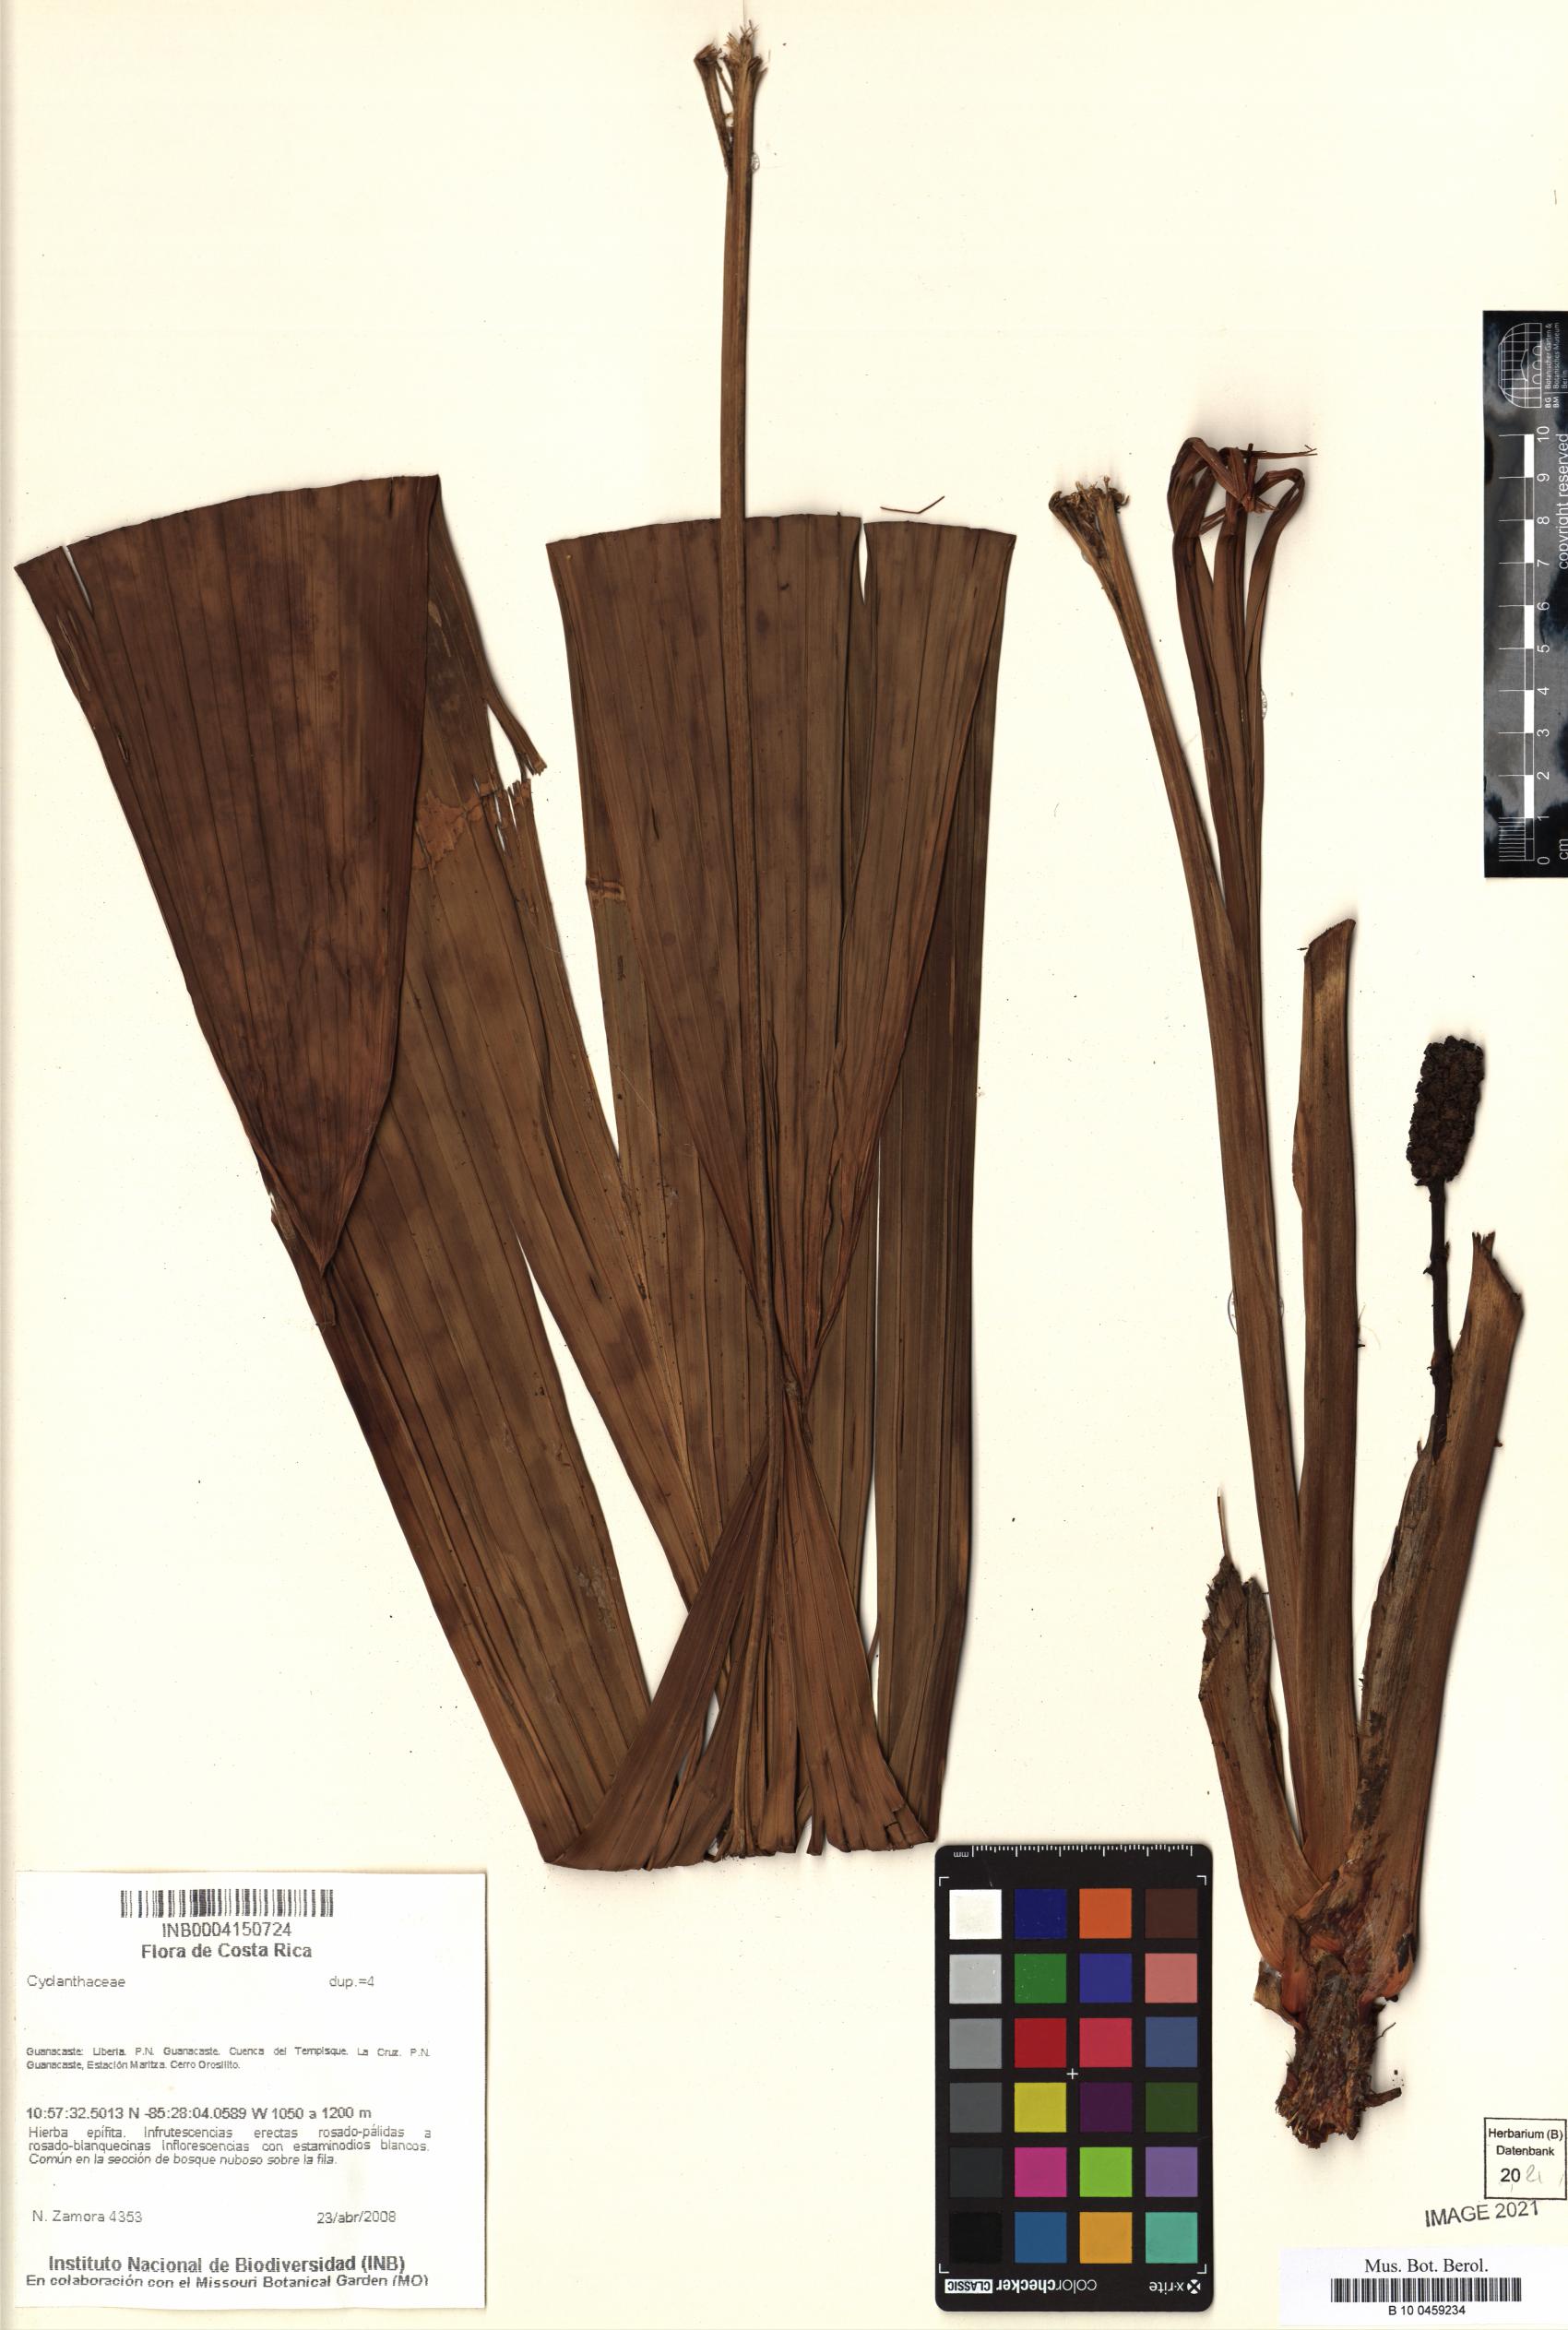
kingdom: Plantae
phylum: Tracheophyta
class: Liliopsida
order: Pandanales
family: Cyclanthaceae
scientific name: Cyclanthaceae
